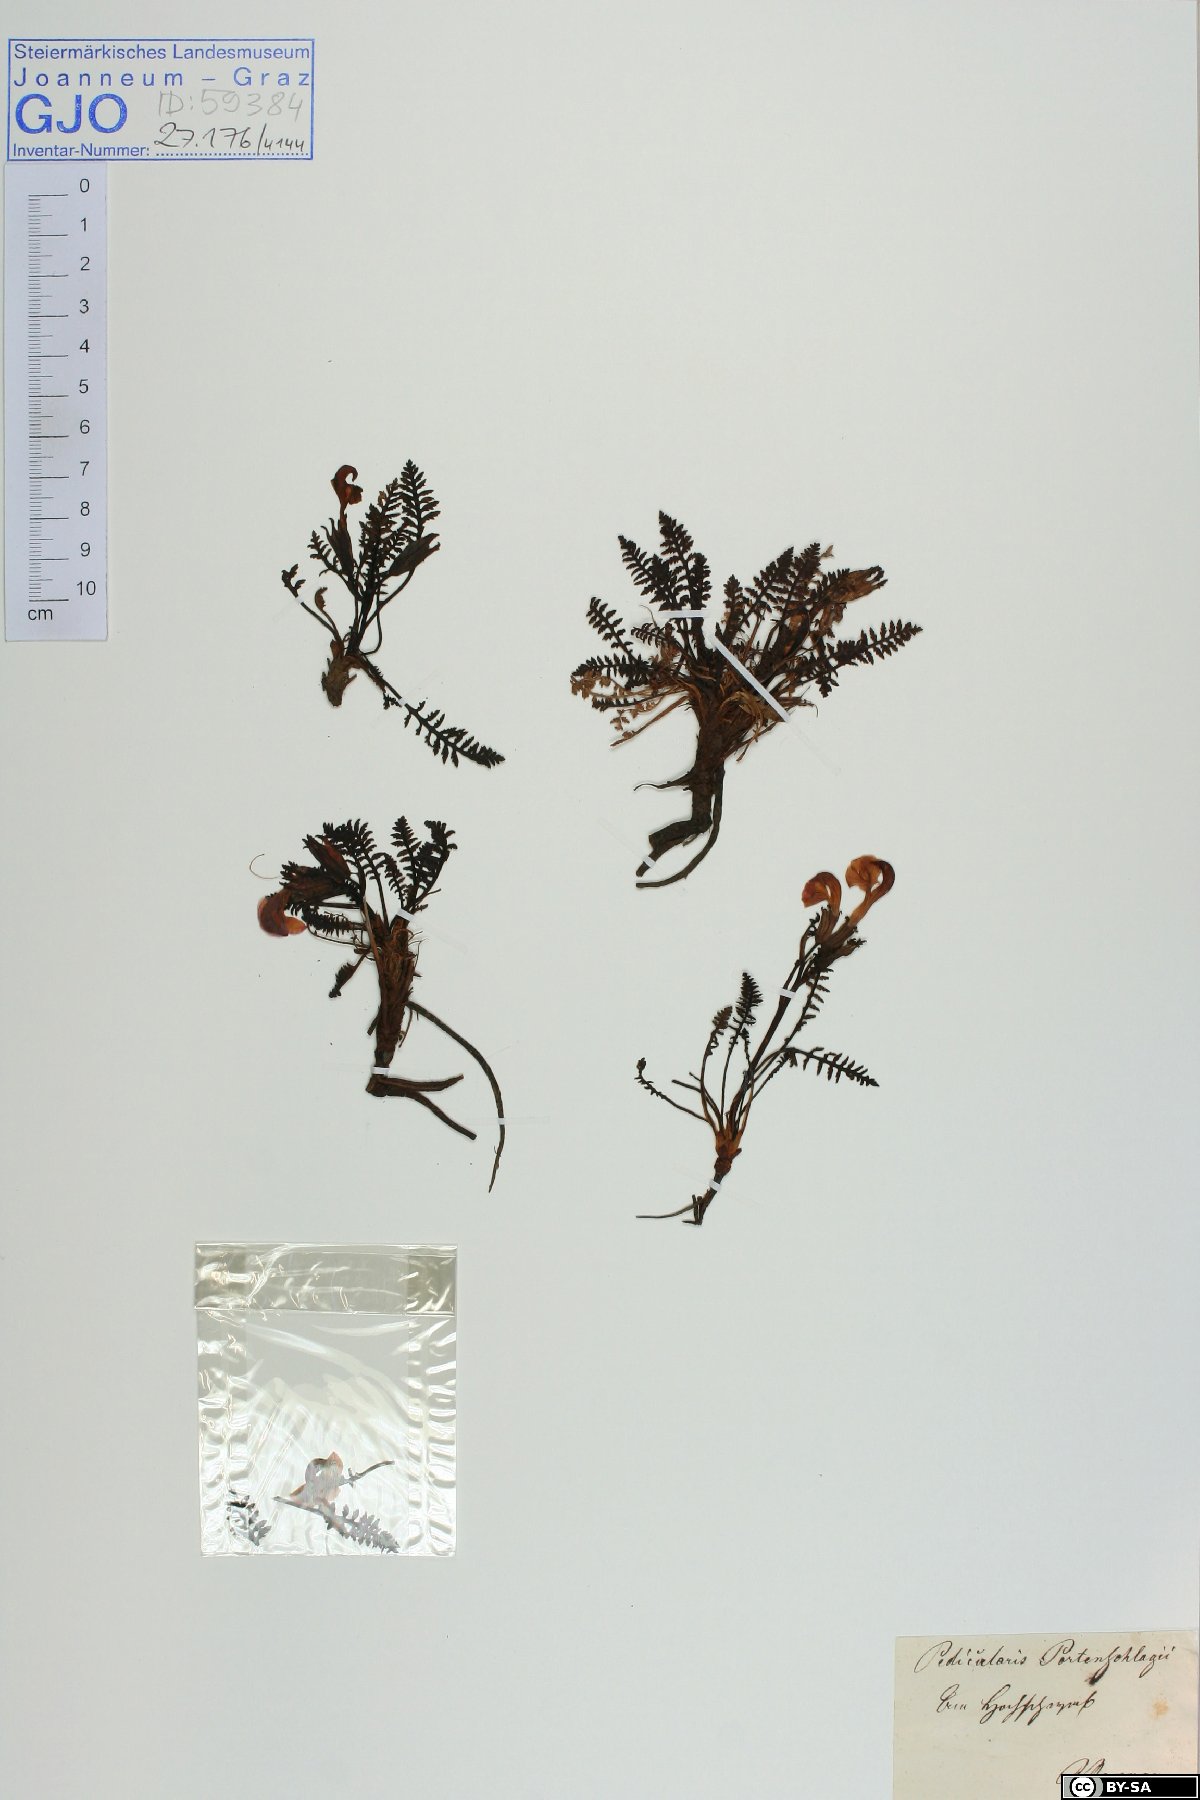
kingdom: Plantae
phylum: Tracheophyta
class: Magnoliopsida
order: Lamiales
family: Orobanchaceae
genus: Pedicularis
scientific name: Pedicularis portenschlagii
